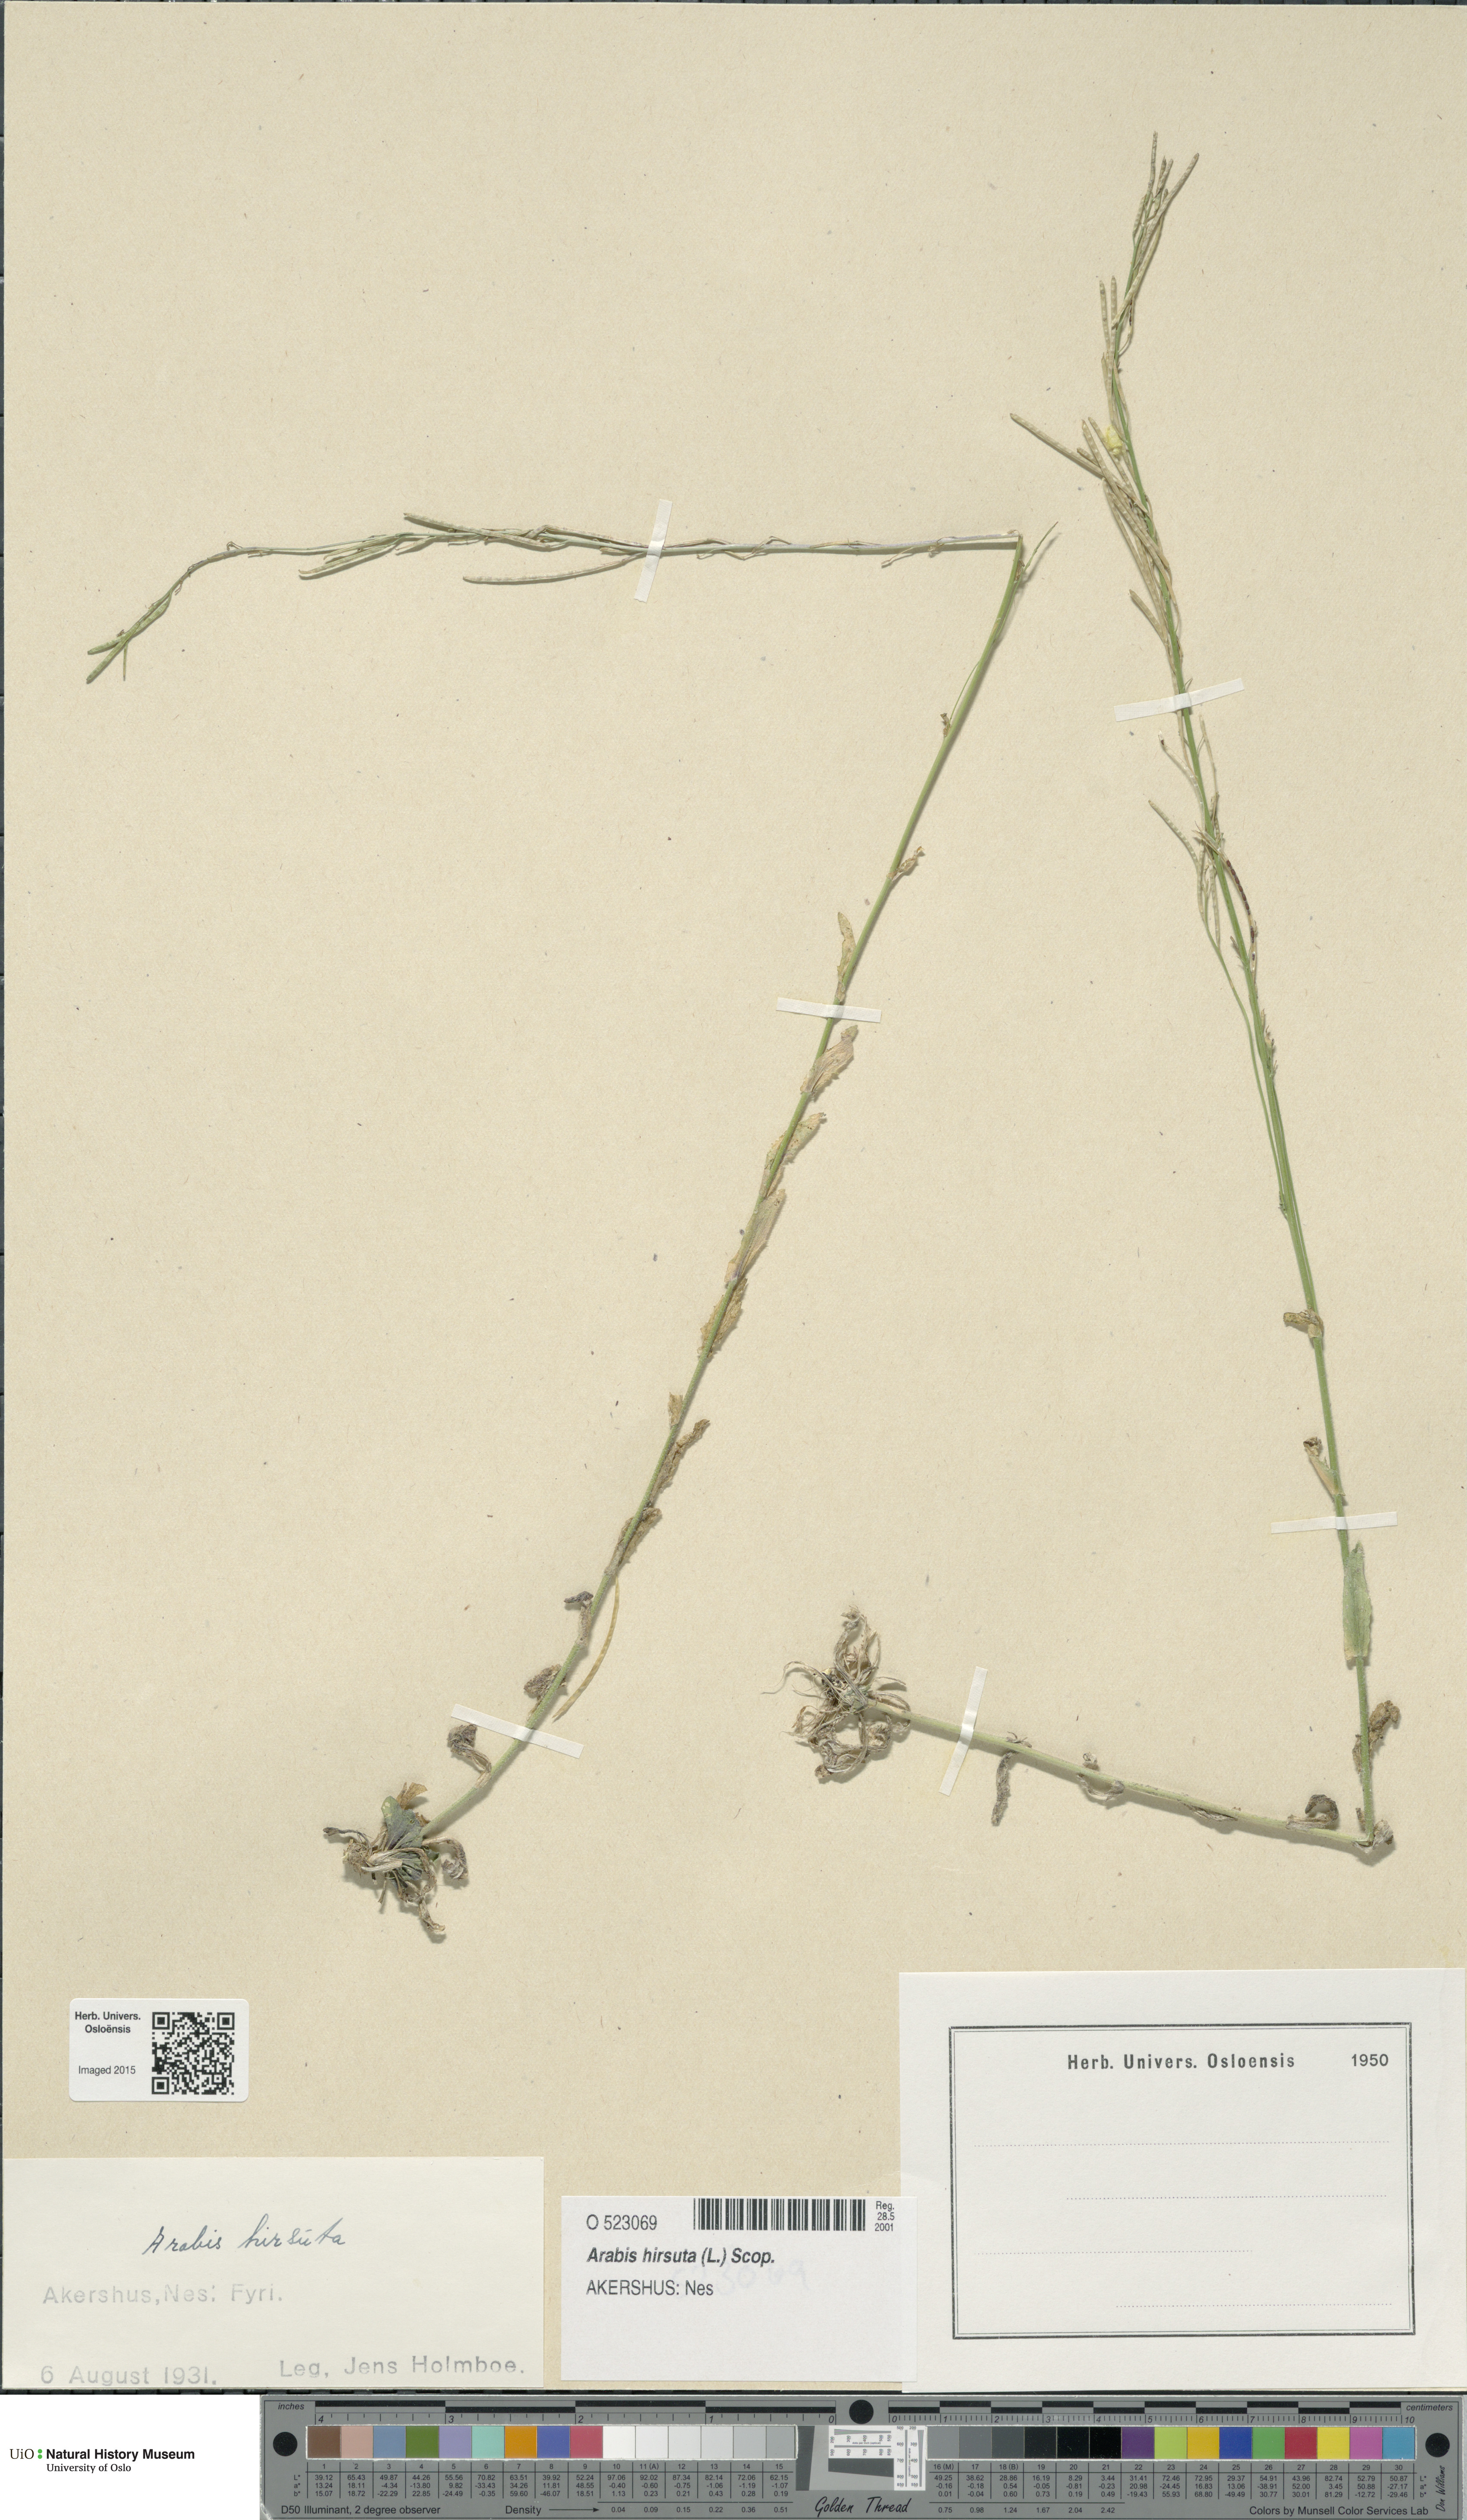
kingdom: Plantae
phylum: Tracheophyta
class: Magnoliopsida
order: Brassicales
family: Brassicaceae
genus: Arabis
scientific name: Arabis hirsuta
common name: Hairy rock-cress
